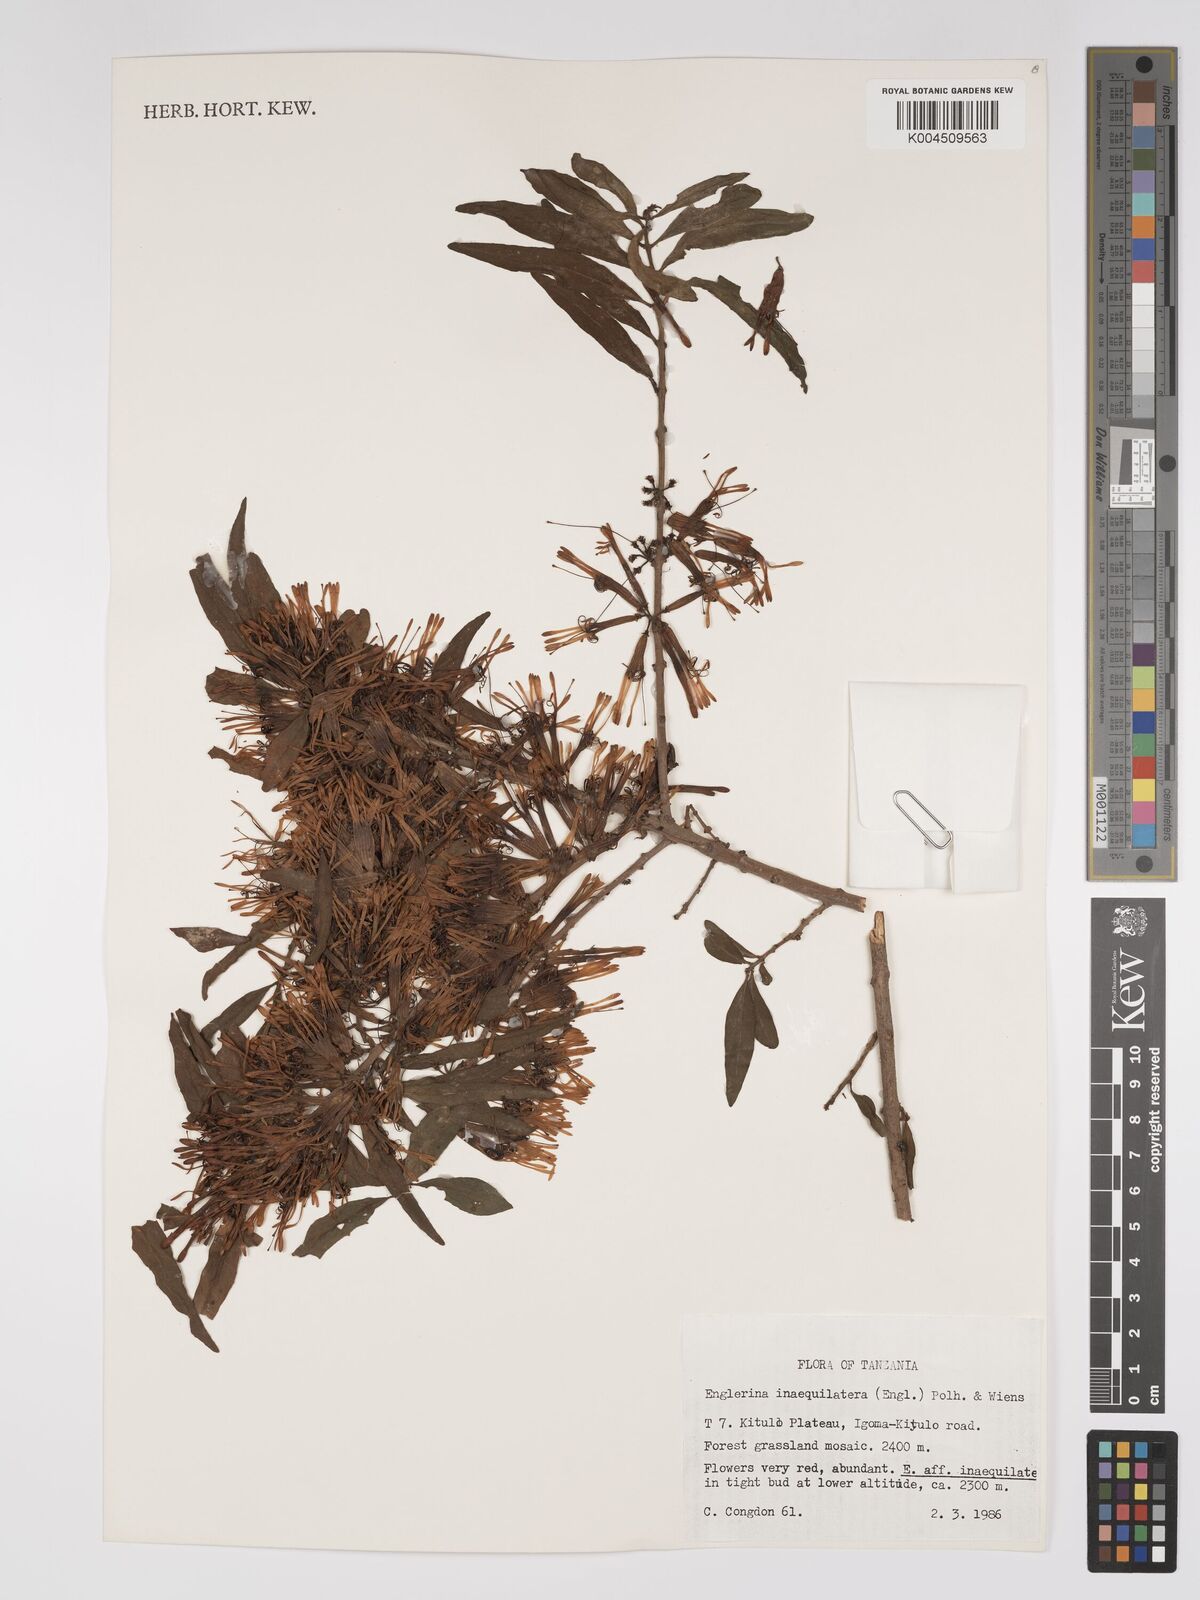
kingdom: Plantae
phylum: Tracheophyta
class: Magnoliopsida
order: Santalales
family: Loranthaceae
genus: Englerina
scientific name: Englerina inaequilatera
